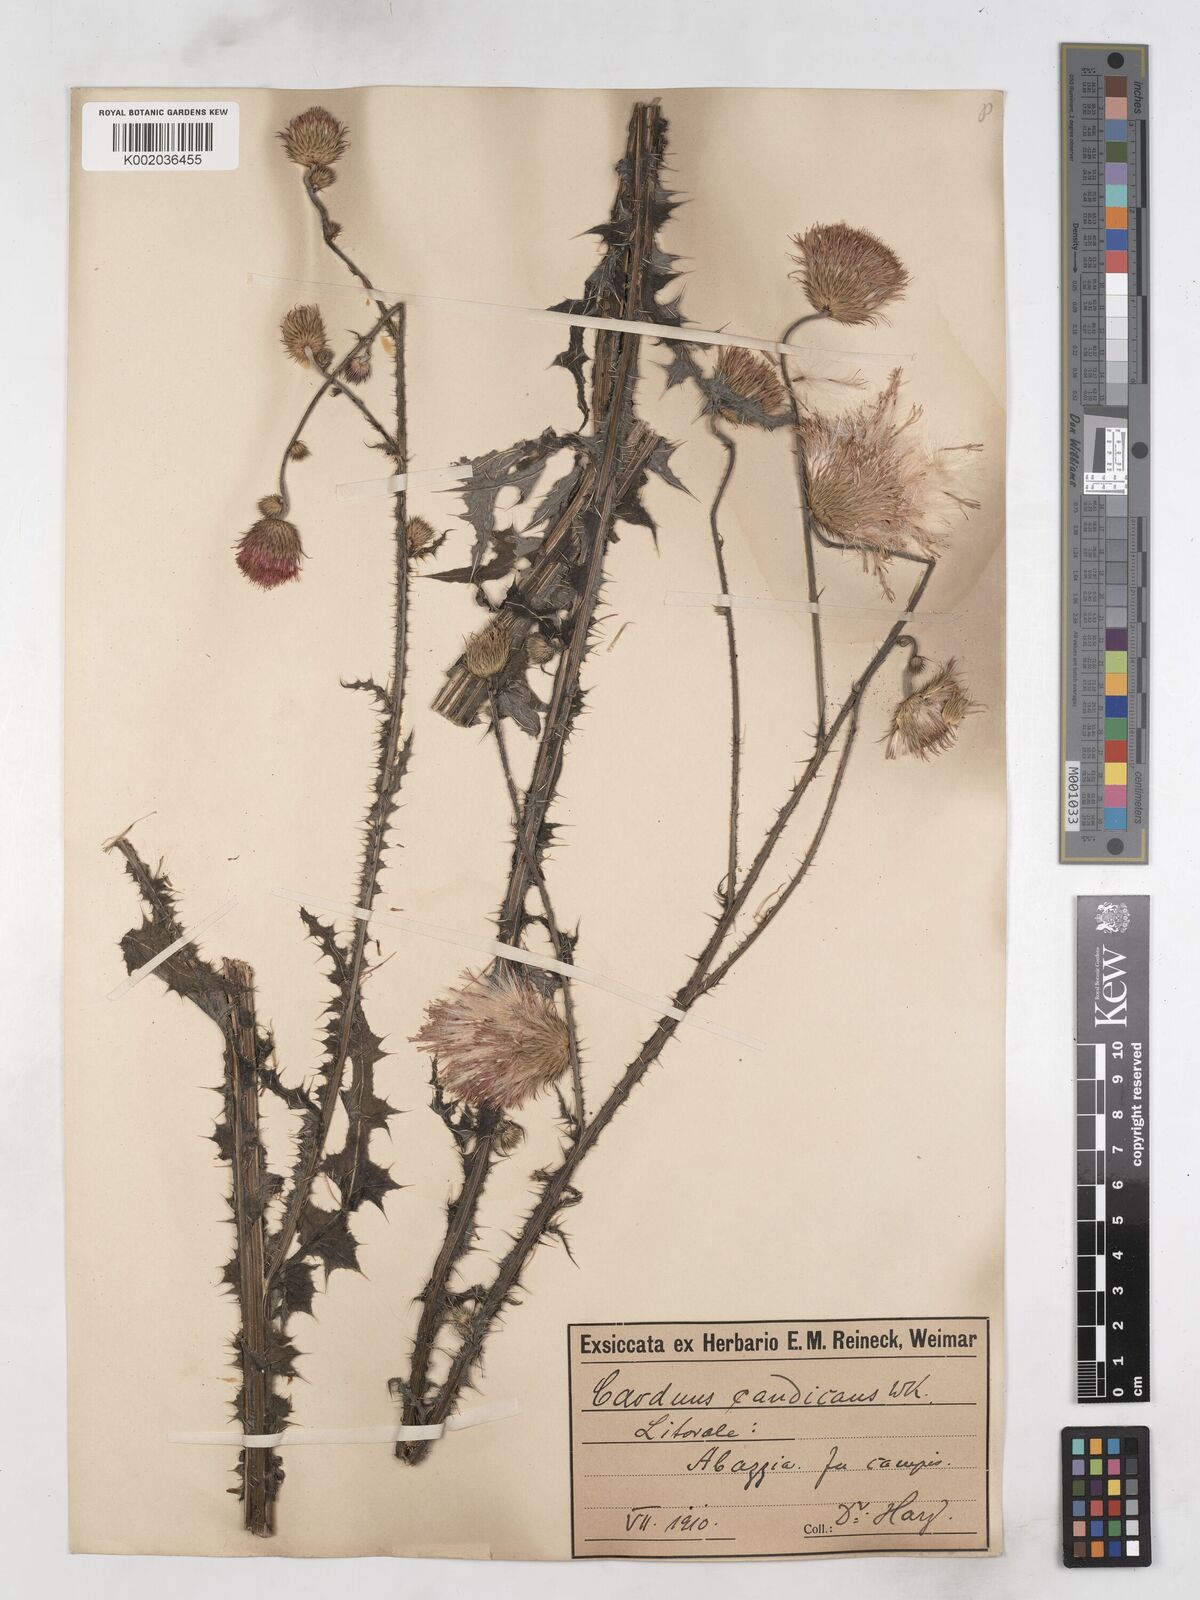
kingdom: Plantae
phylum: Tracheophyta
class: Magnoliopsida
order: Asterales
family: Asteraceae
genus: Carduus
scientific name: Carduus candicans
